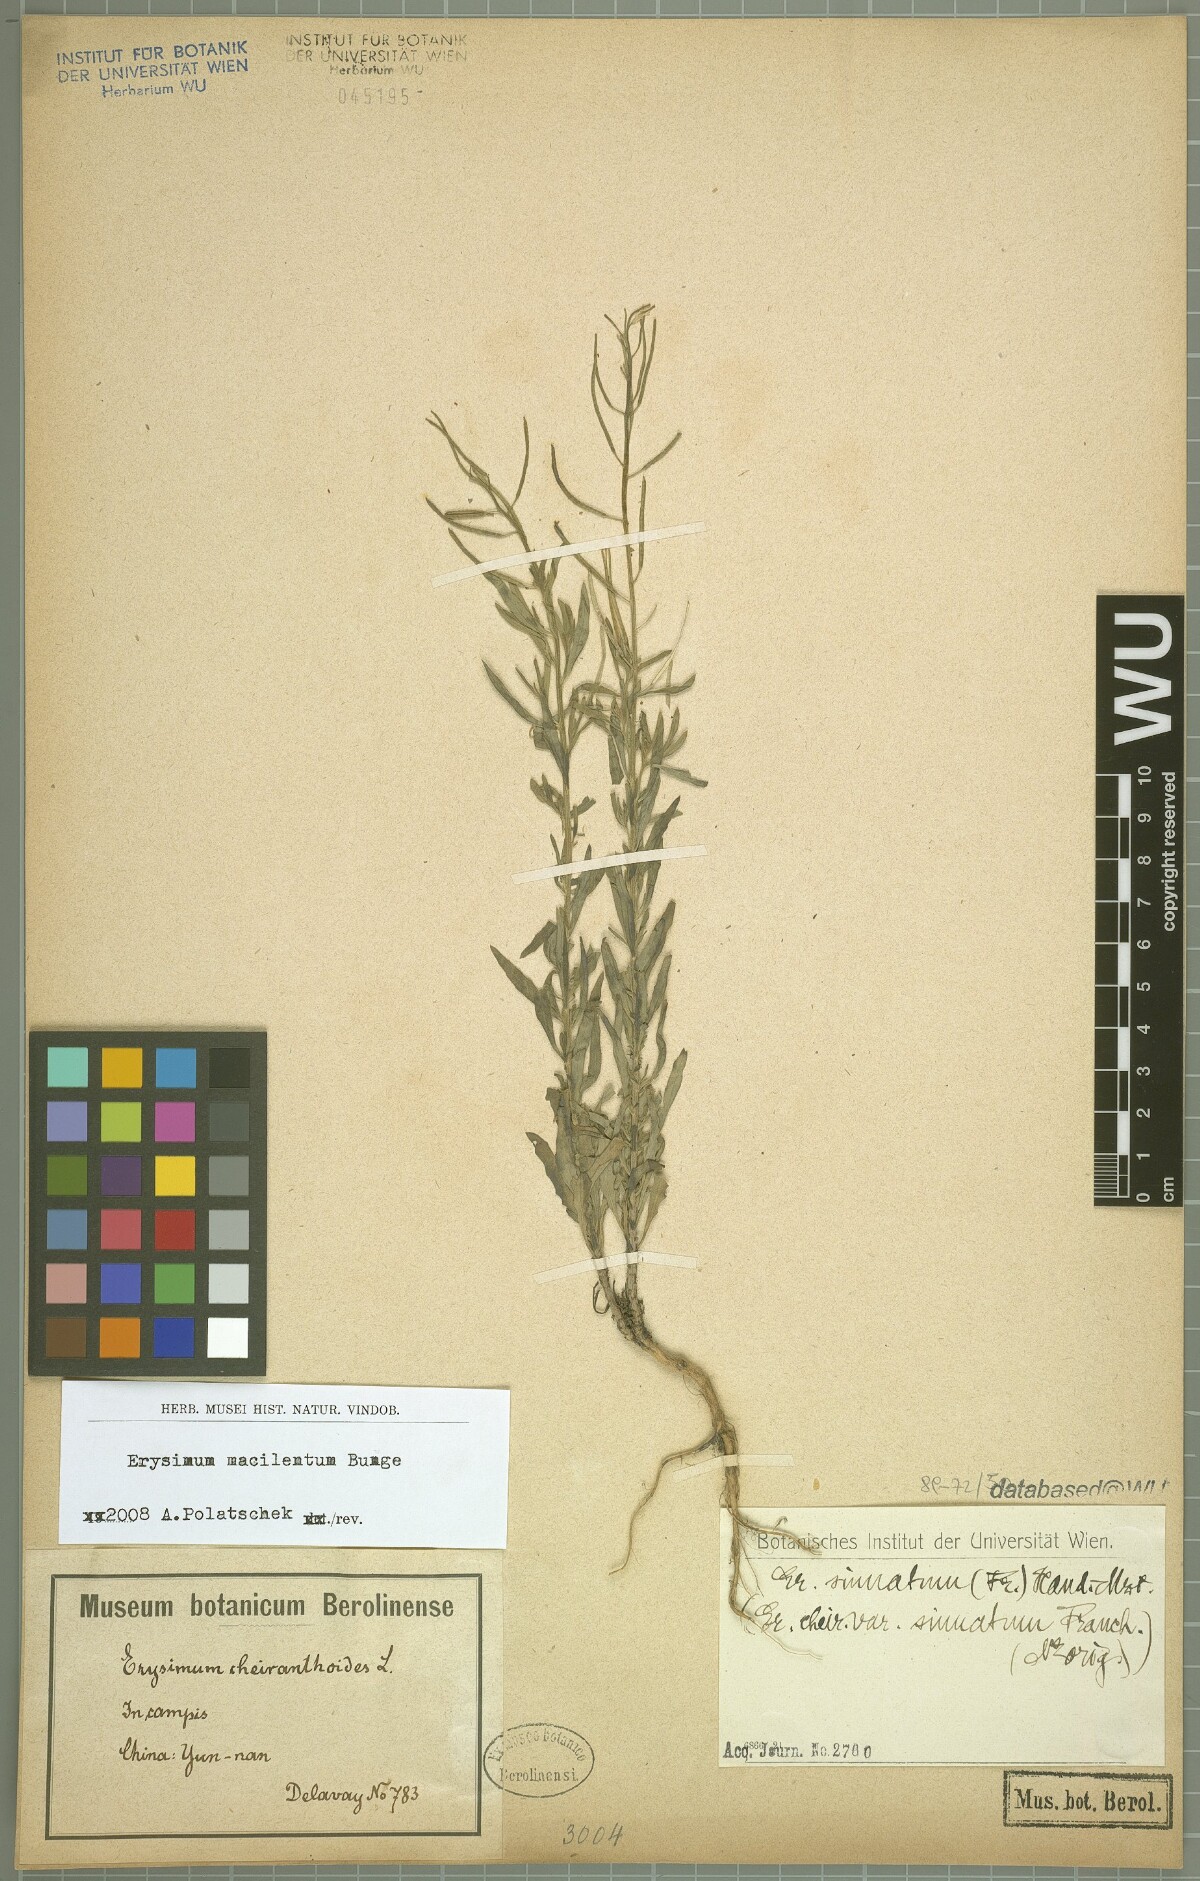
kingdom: Plantae
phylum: Tracheophyta
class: Magnoliopsida
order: Brassicales
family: Brassicaceae
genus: Erysimum
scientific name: Erysimum macilentum
